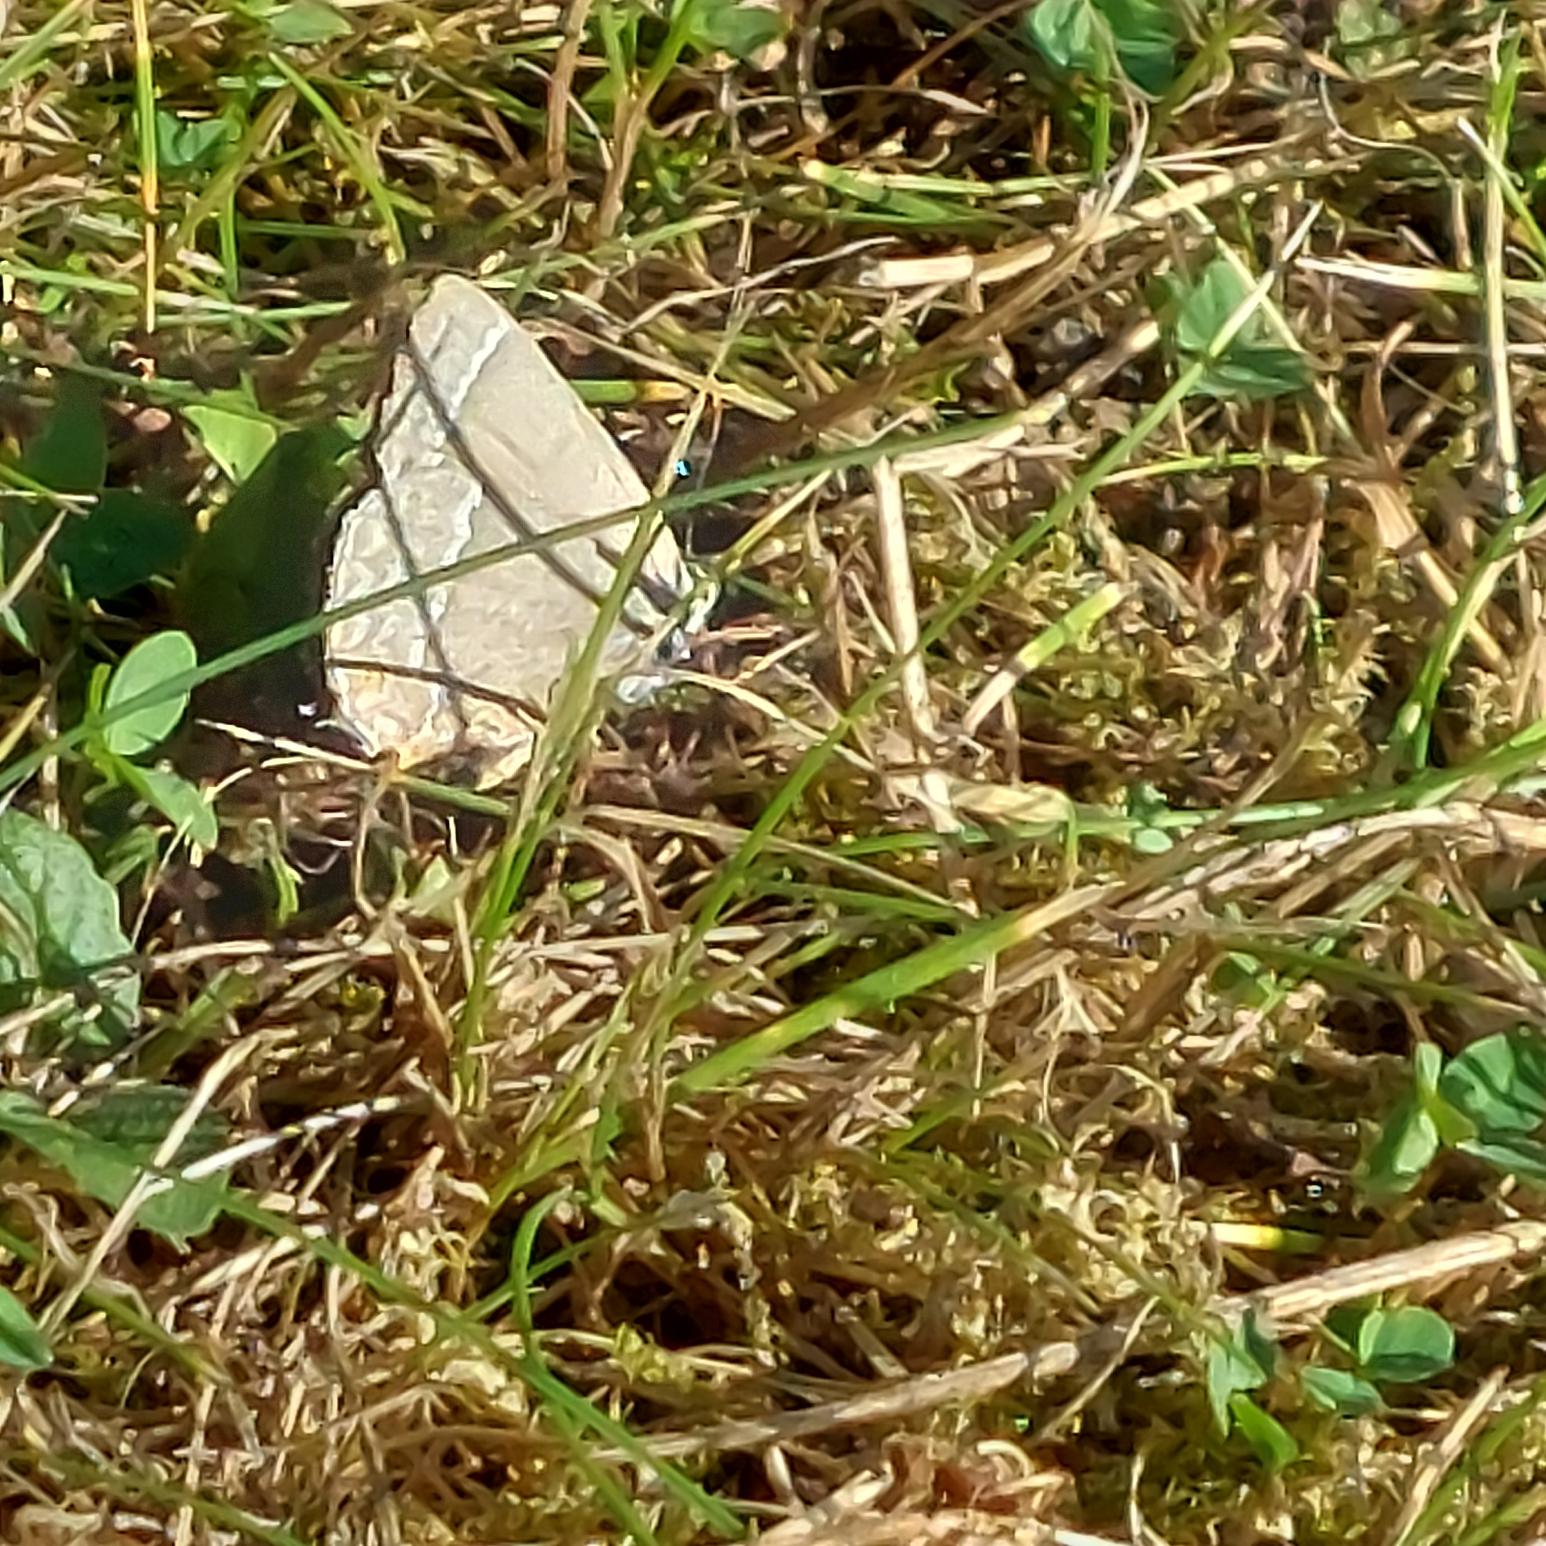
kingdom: Animalia
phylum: Arthropoda
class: Insecta
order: Lepidoptera
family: Lycaenidae
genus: Quercusia
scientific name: Quercusia quercus
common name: Blåhale
